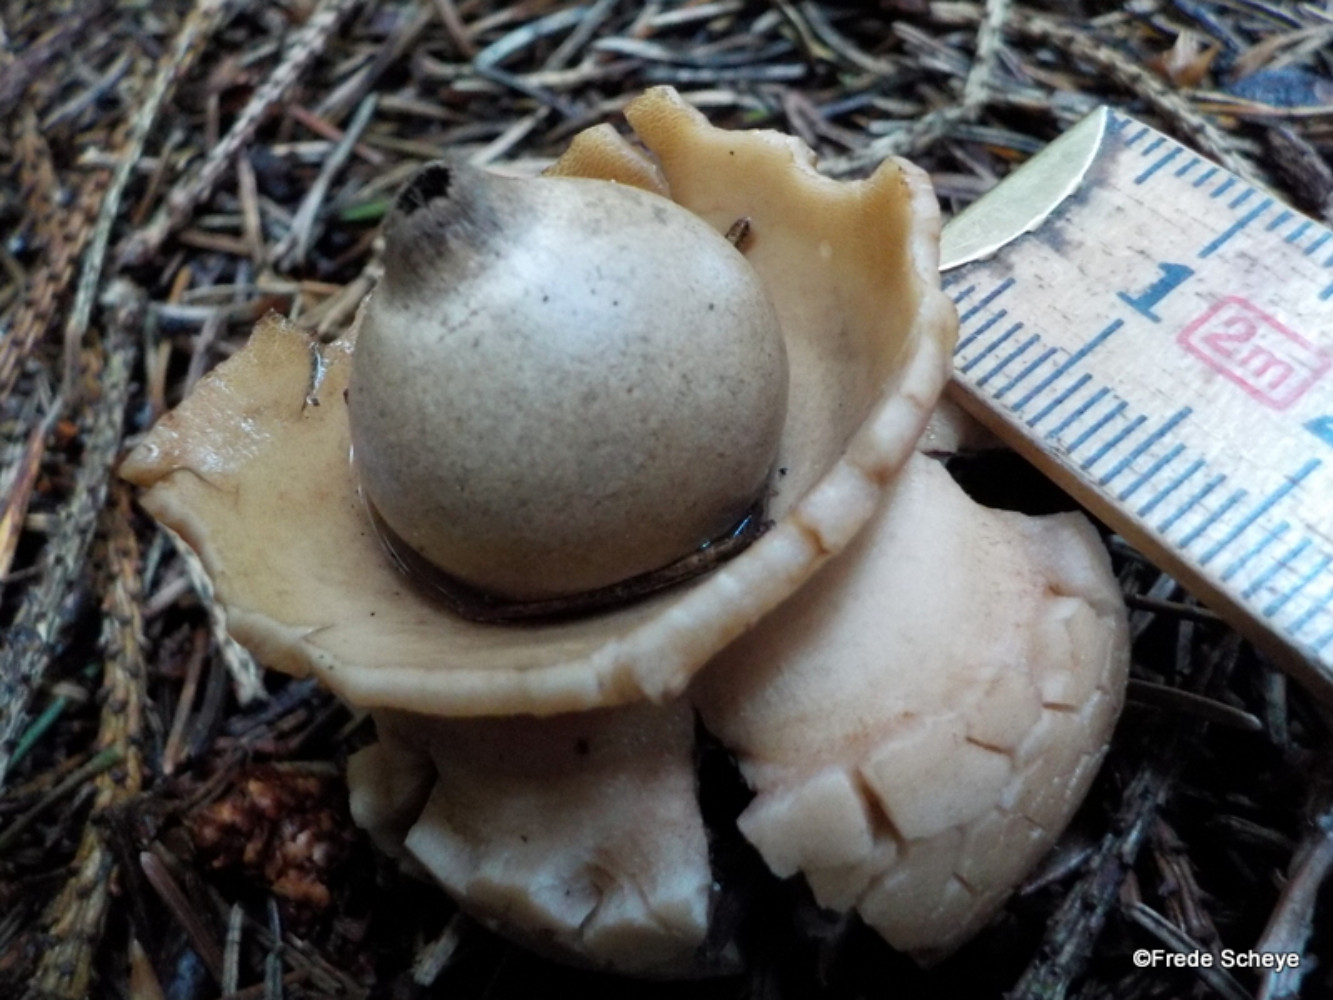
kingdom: Fungi
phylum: Basidiomycota
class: Agaricomycetes
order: Geastrales
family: Geastraceae
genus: Geastrum
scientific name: Geastrum michelianum
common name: kødet stjernebold
